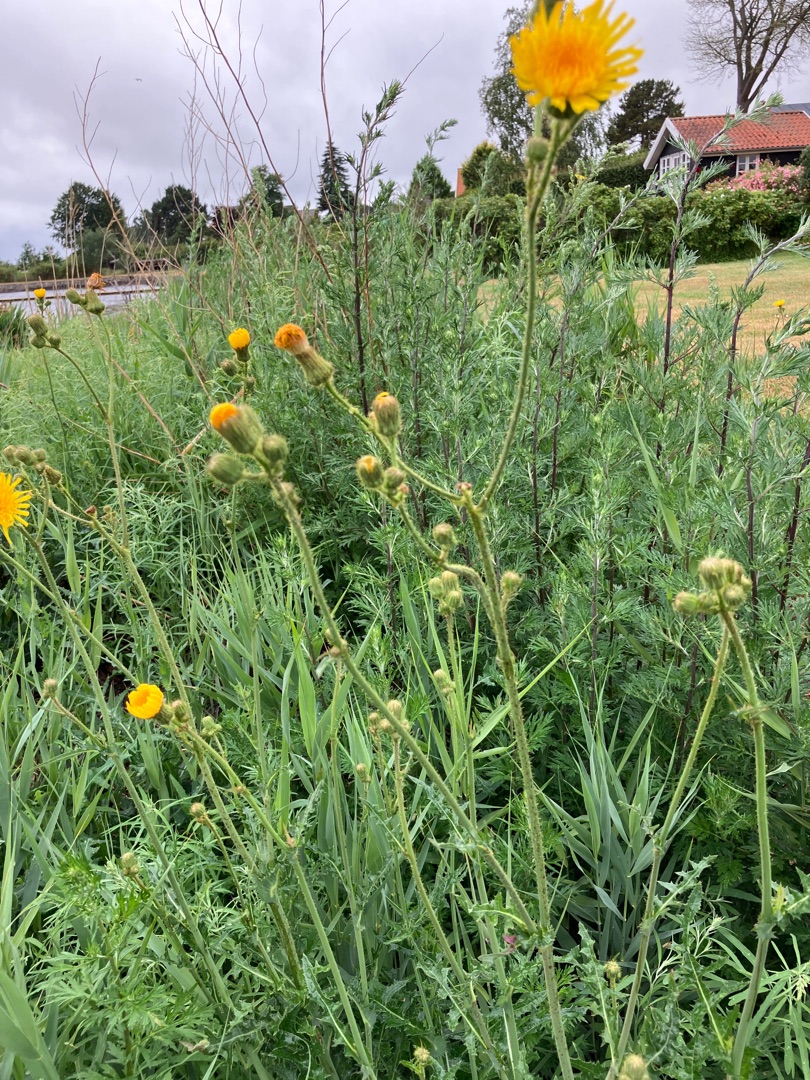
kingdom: Plantae
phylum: Tracheophyta
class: Magnoliopsida
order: Asterales
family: Asteraceae
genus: Sonchus
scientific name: Sonchus arvensis
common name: Ager-svinemælk
